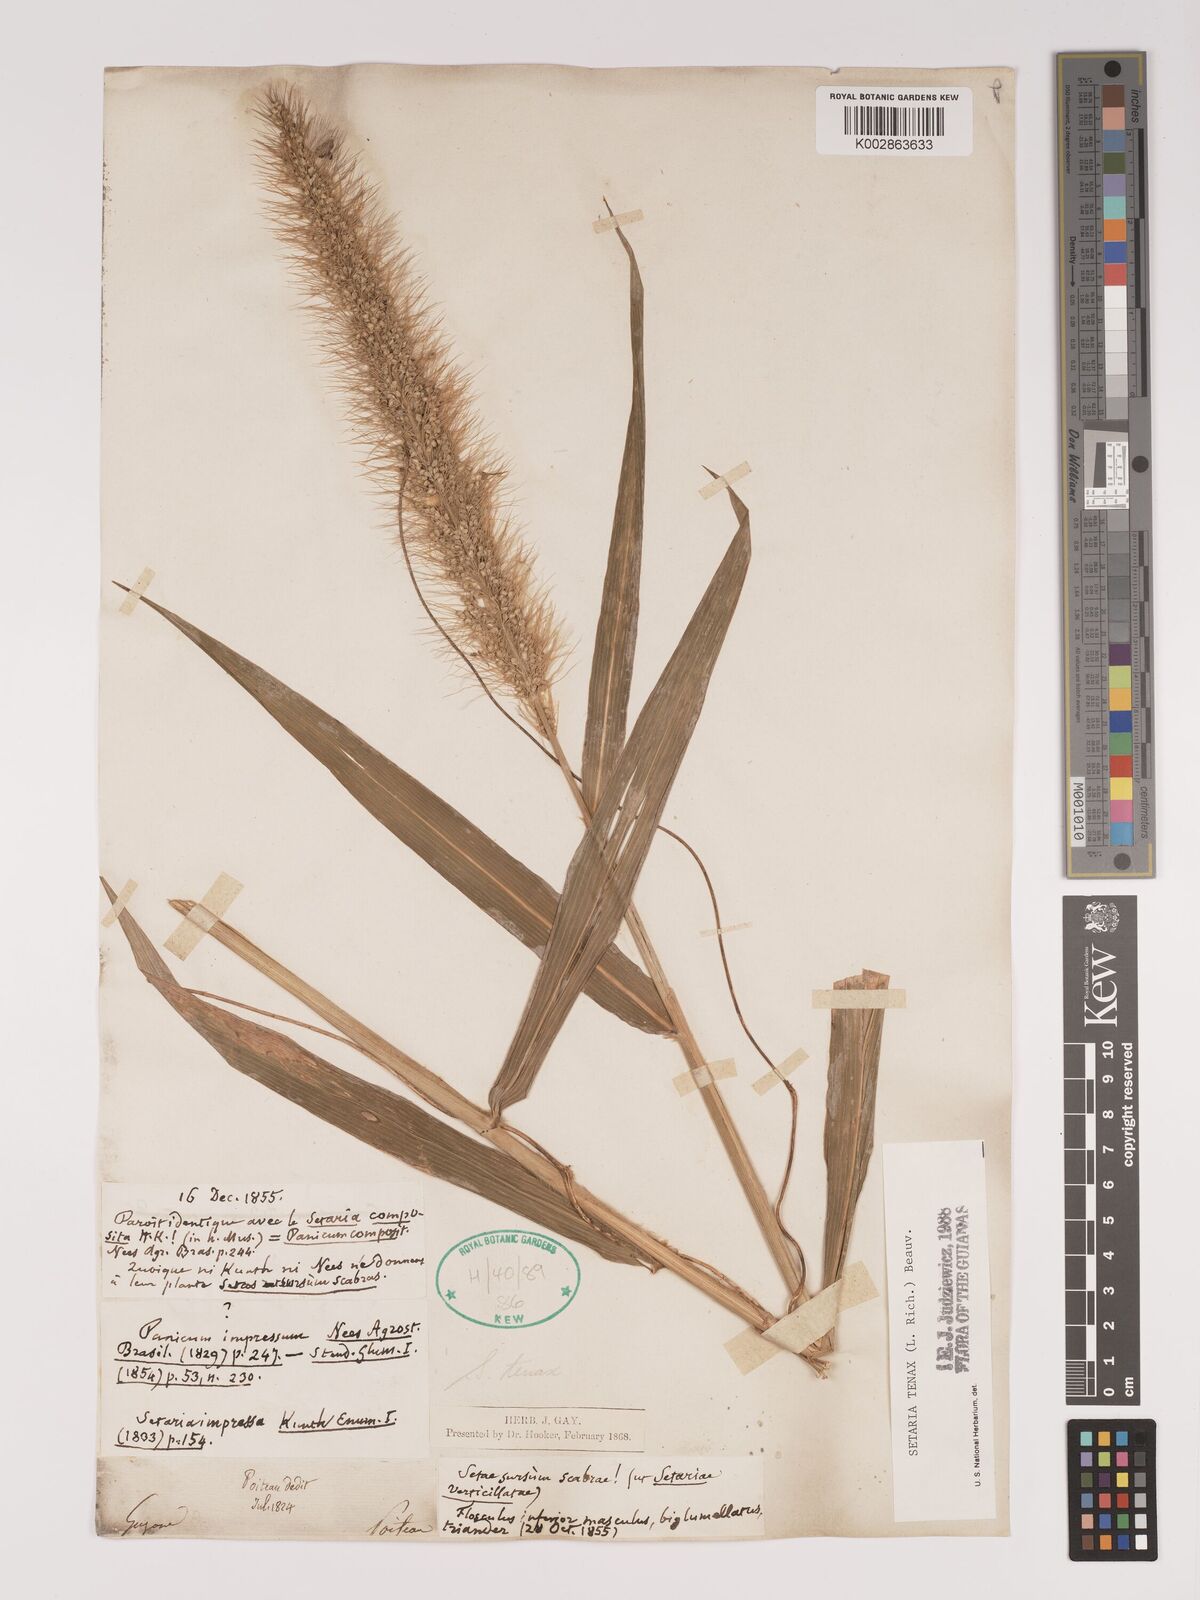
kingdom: Plantae
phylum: Tracheophyta
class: Liliopsida
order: Poales
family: Poaceae
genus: Setaria
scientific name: Setaria tenax
